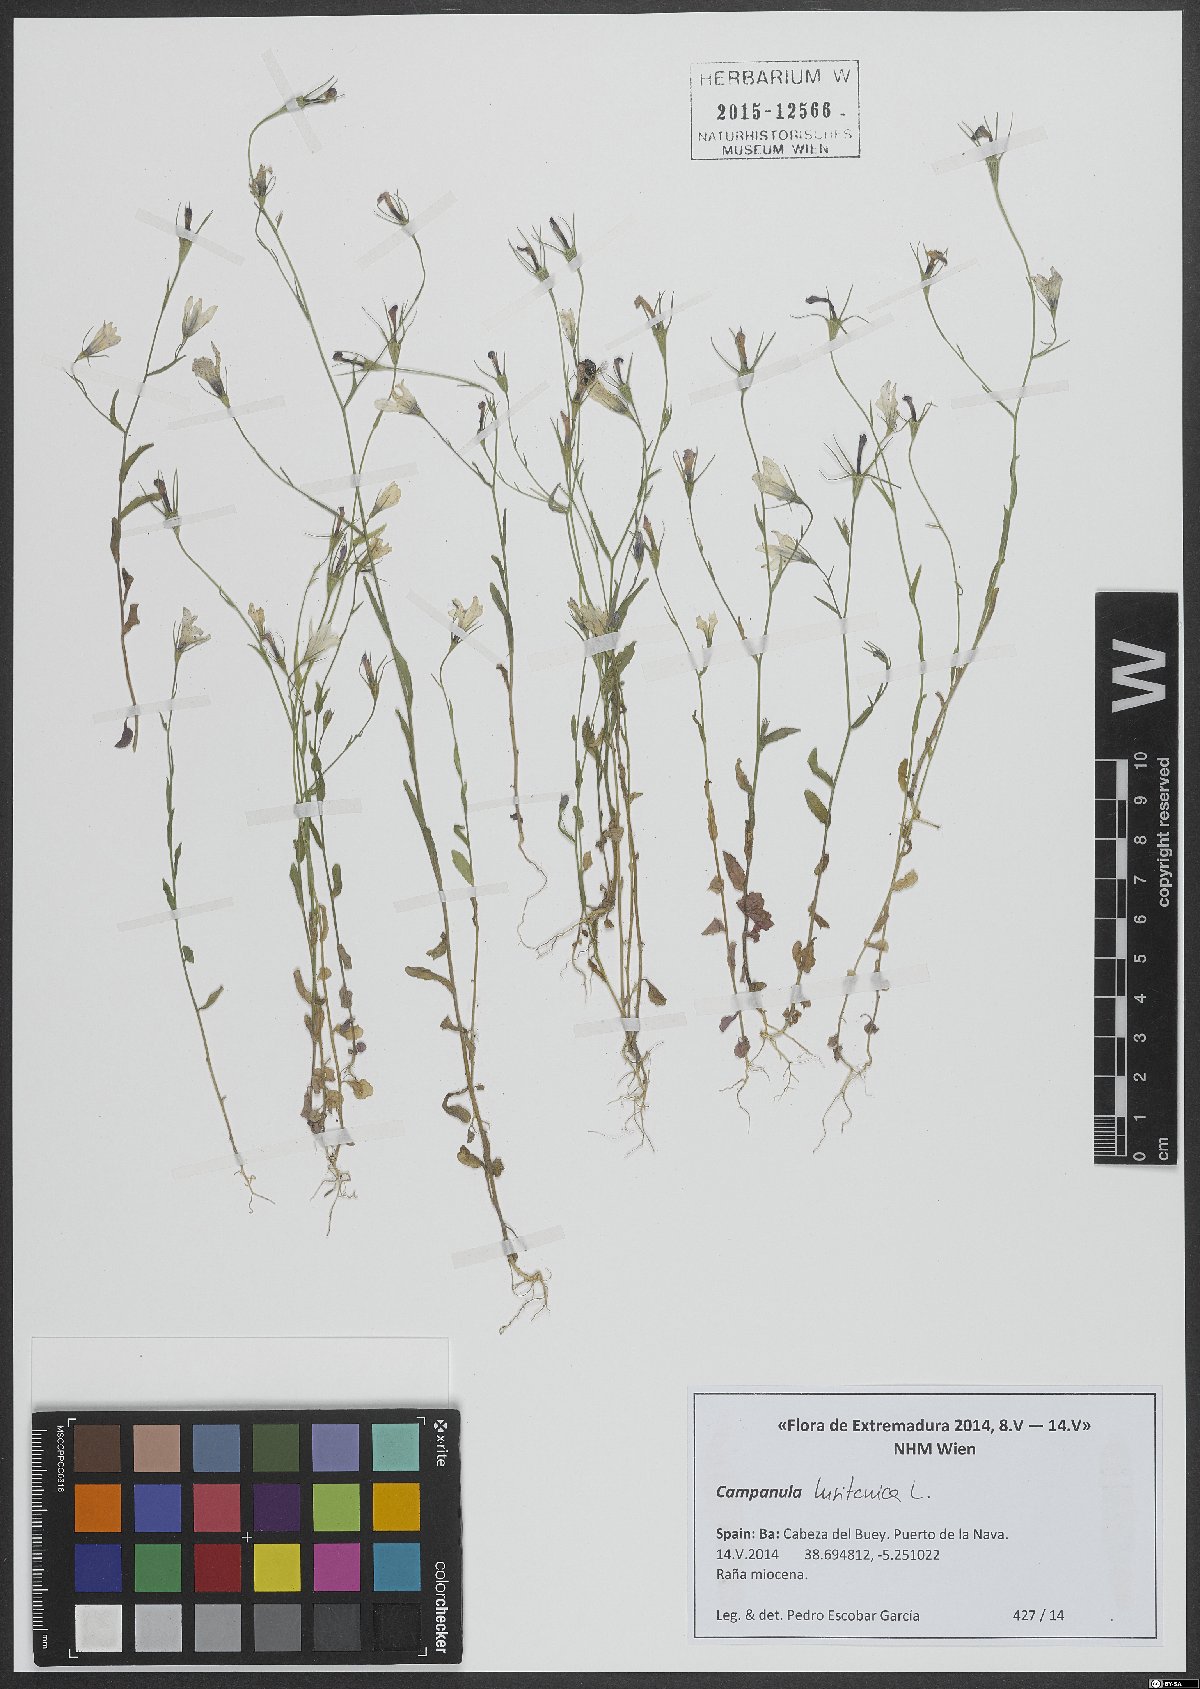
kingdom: Plantae
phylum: Tracheophyta
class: Magnoliopsida
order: Asterales
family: Campanulaceae
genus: Campanula
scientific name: Campanula lusitanica
